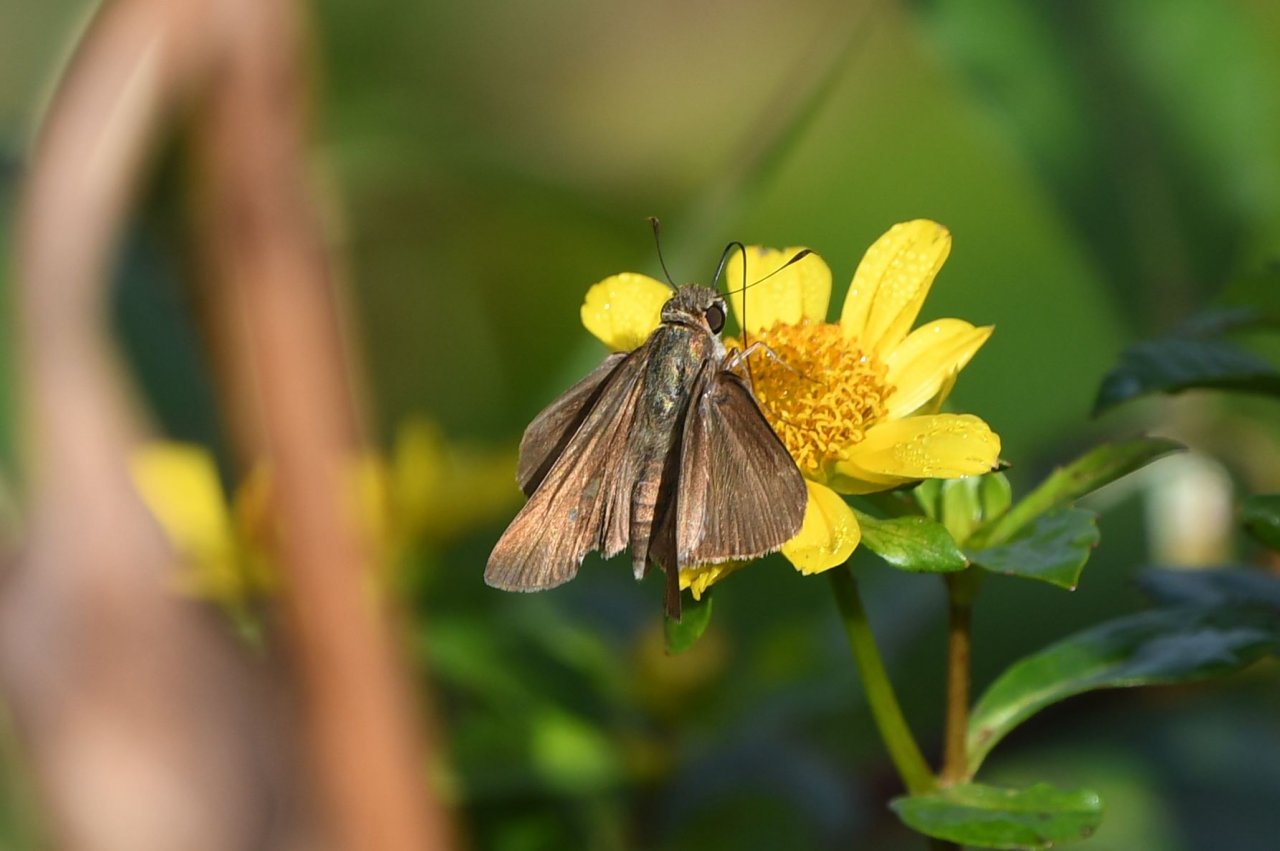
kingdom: Animalia
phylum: Arthropoda
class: Insecta
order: Lepidoptera
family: Hesperiidae
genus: Euphyes
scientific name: Euphyes vestris
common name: Dun Skipper
